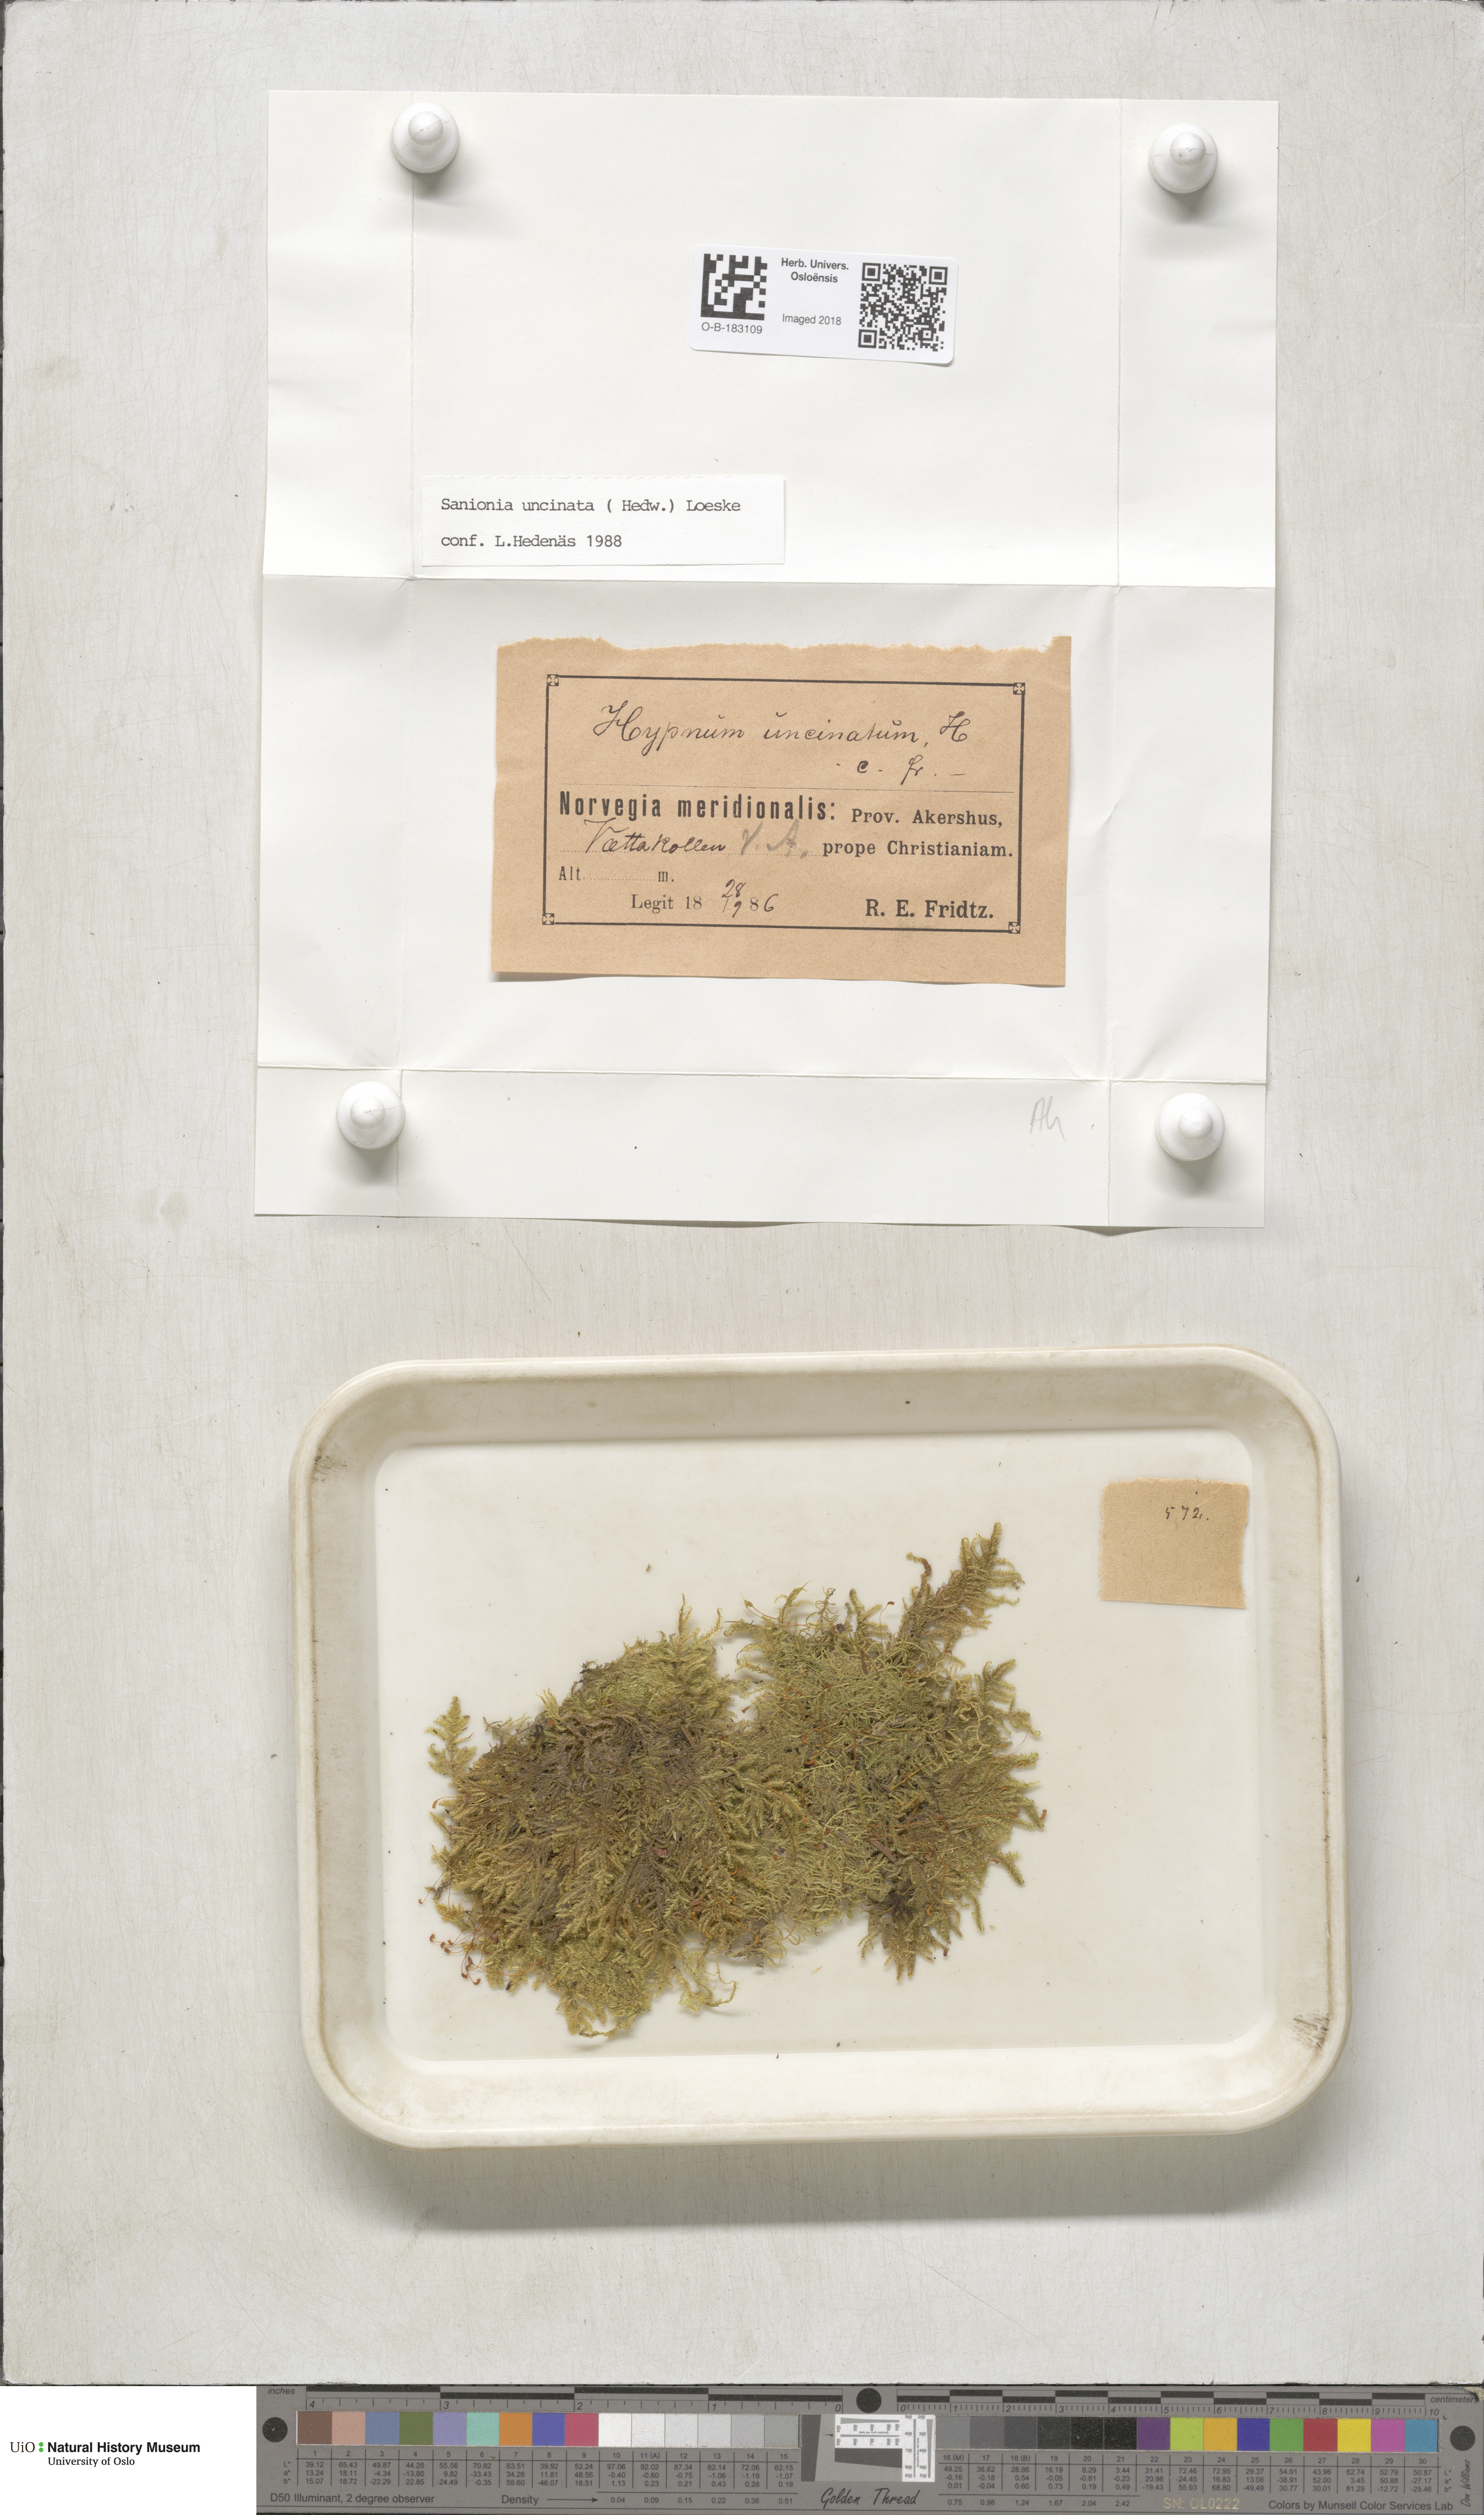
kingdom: Plantae
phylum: Bryophyta
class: Bryopsida
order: Hypnales
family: Scorpidiaceae
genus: Sanionia
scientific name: Sanionia uncinata
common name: Sickle moss
